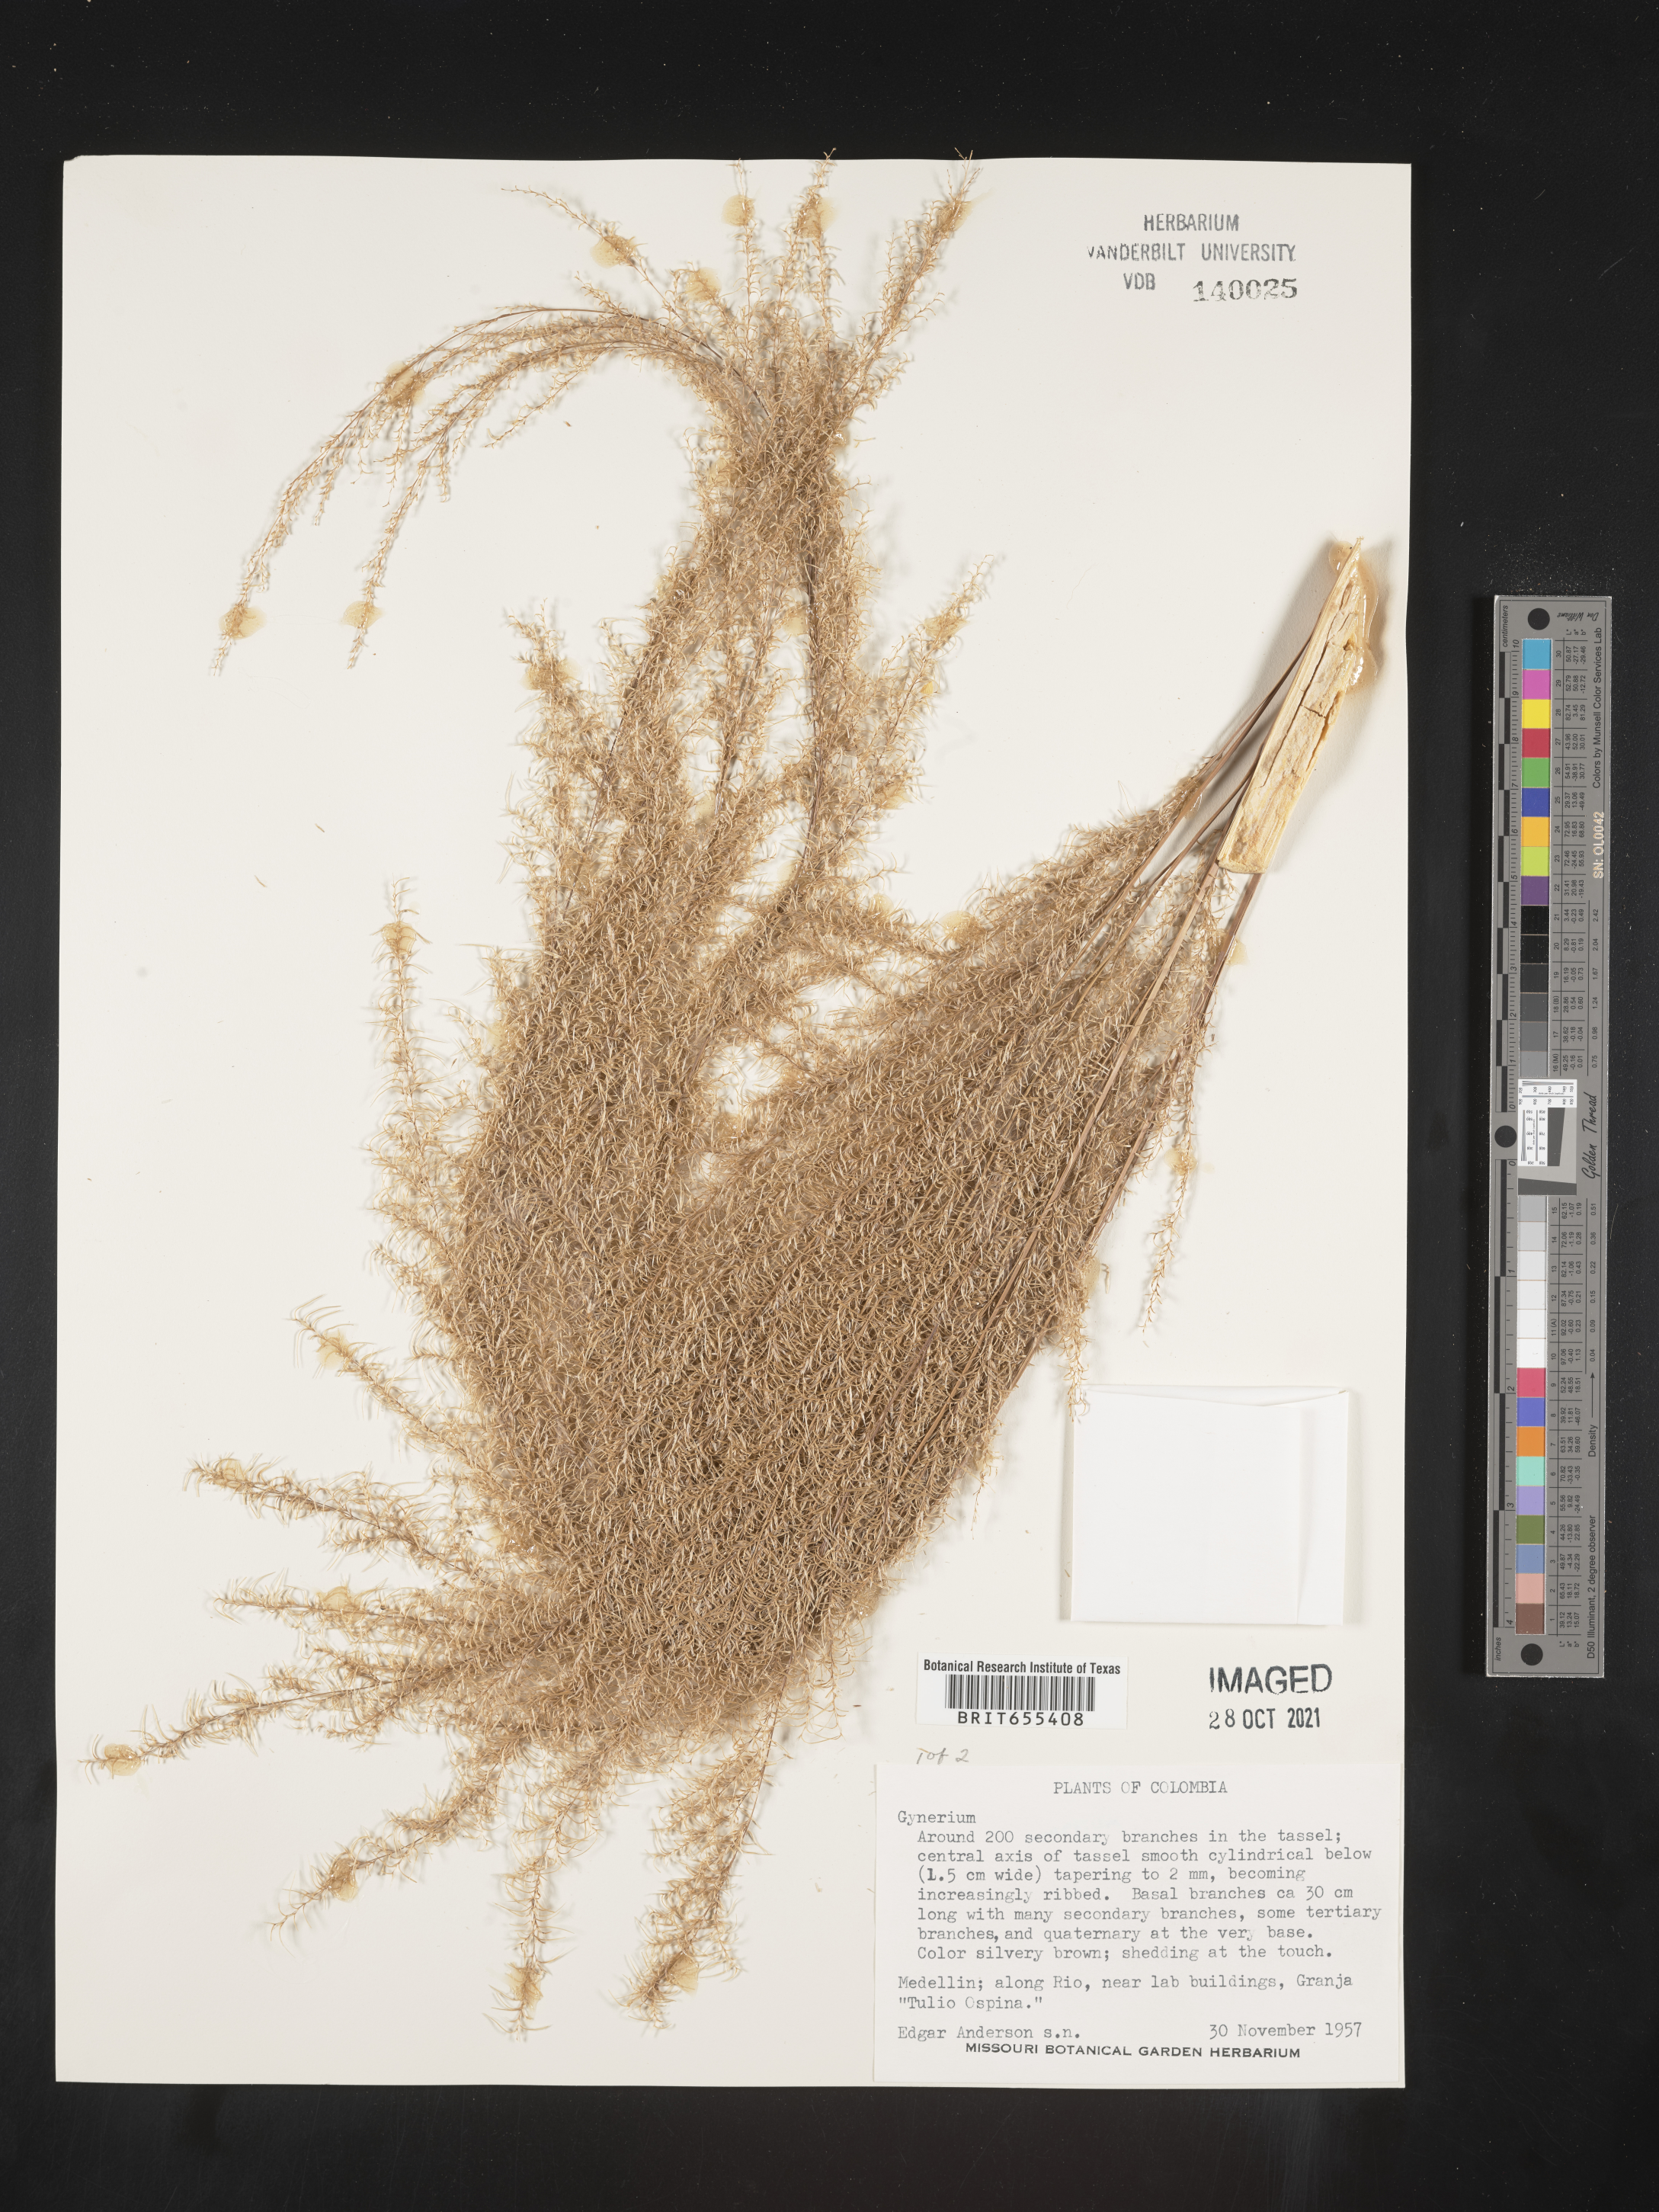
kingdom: Plantae
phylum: Tracheophyta
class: Liliopsida
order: Poales
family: Poaceae
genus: Gynerium
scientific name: Gynerium
